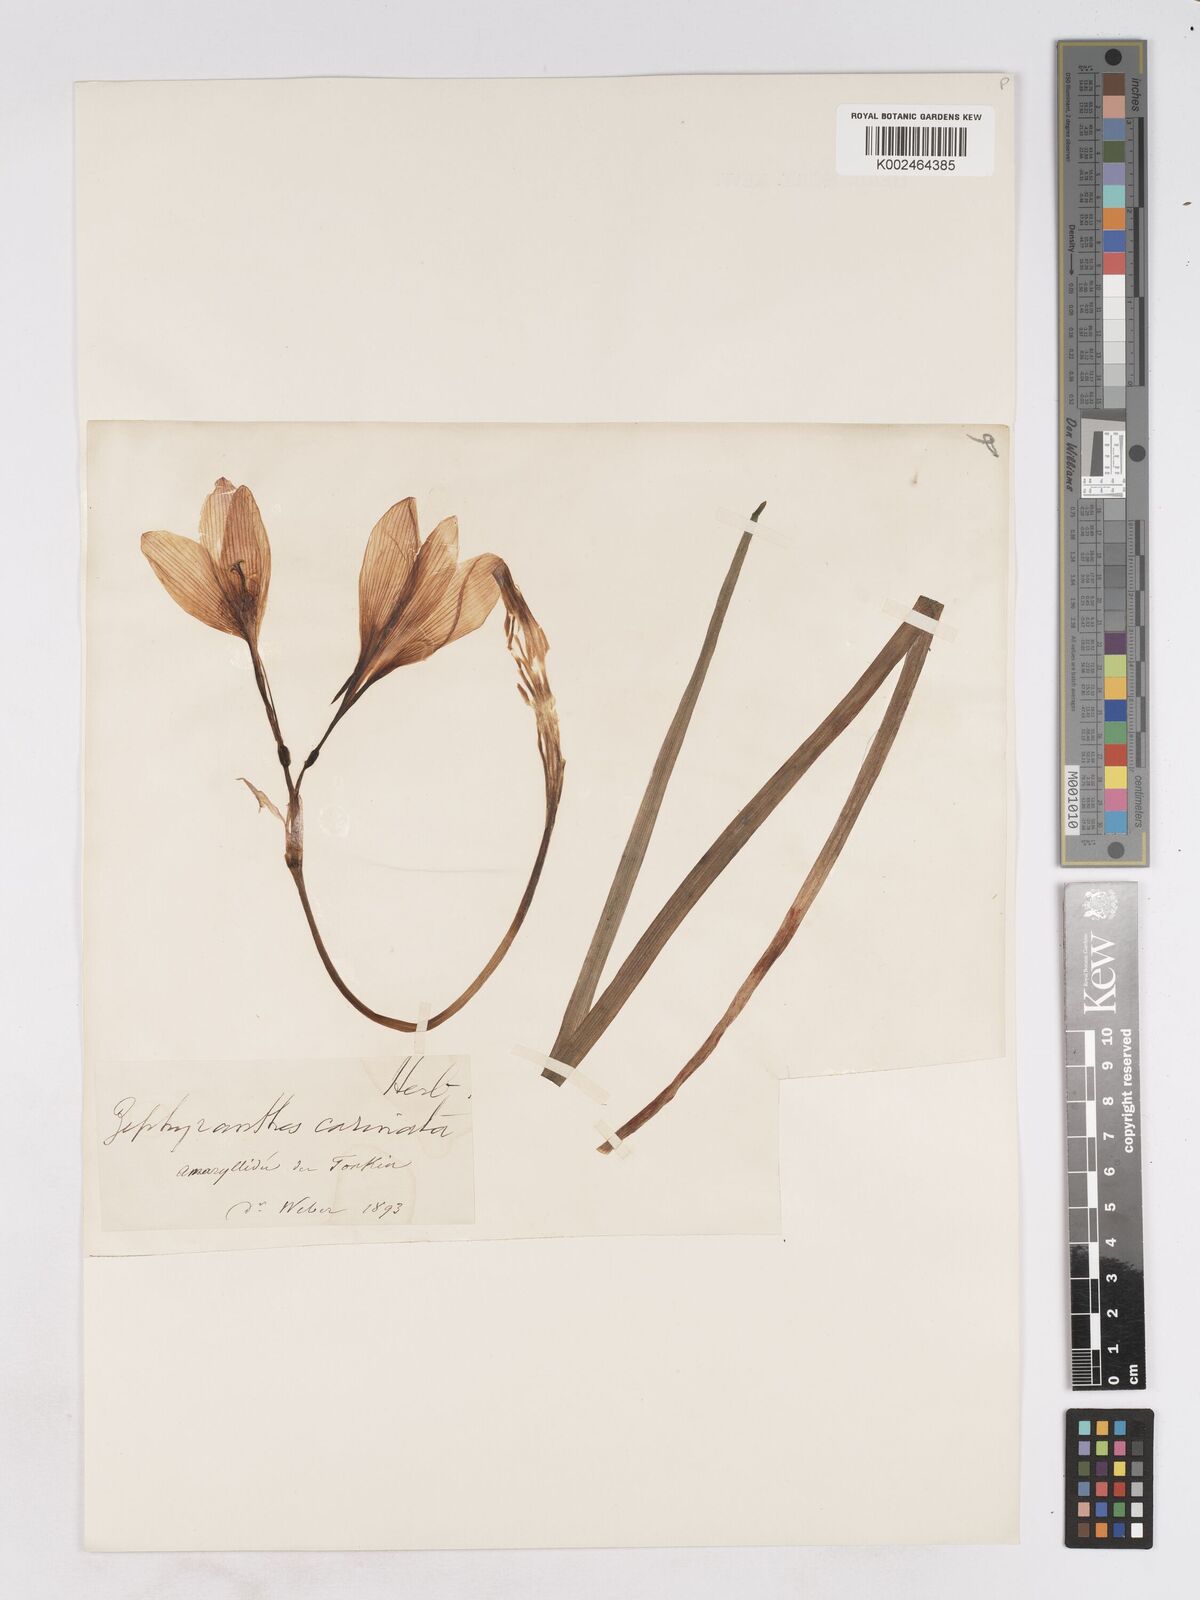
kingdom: Plantae
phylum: Tracheophyta
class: Liliopsida
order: Asparagales
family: Amaryllidaceae
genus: Zephyranthes
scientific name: Zephyranthes minuta
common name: Pink rain lily
